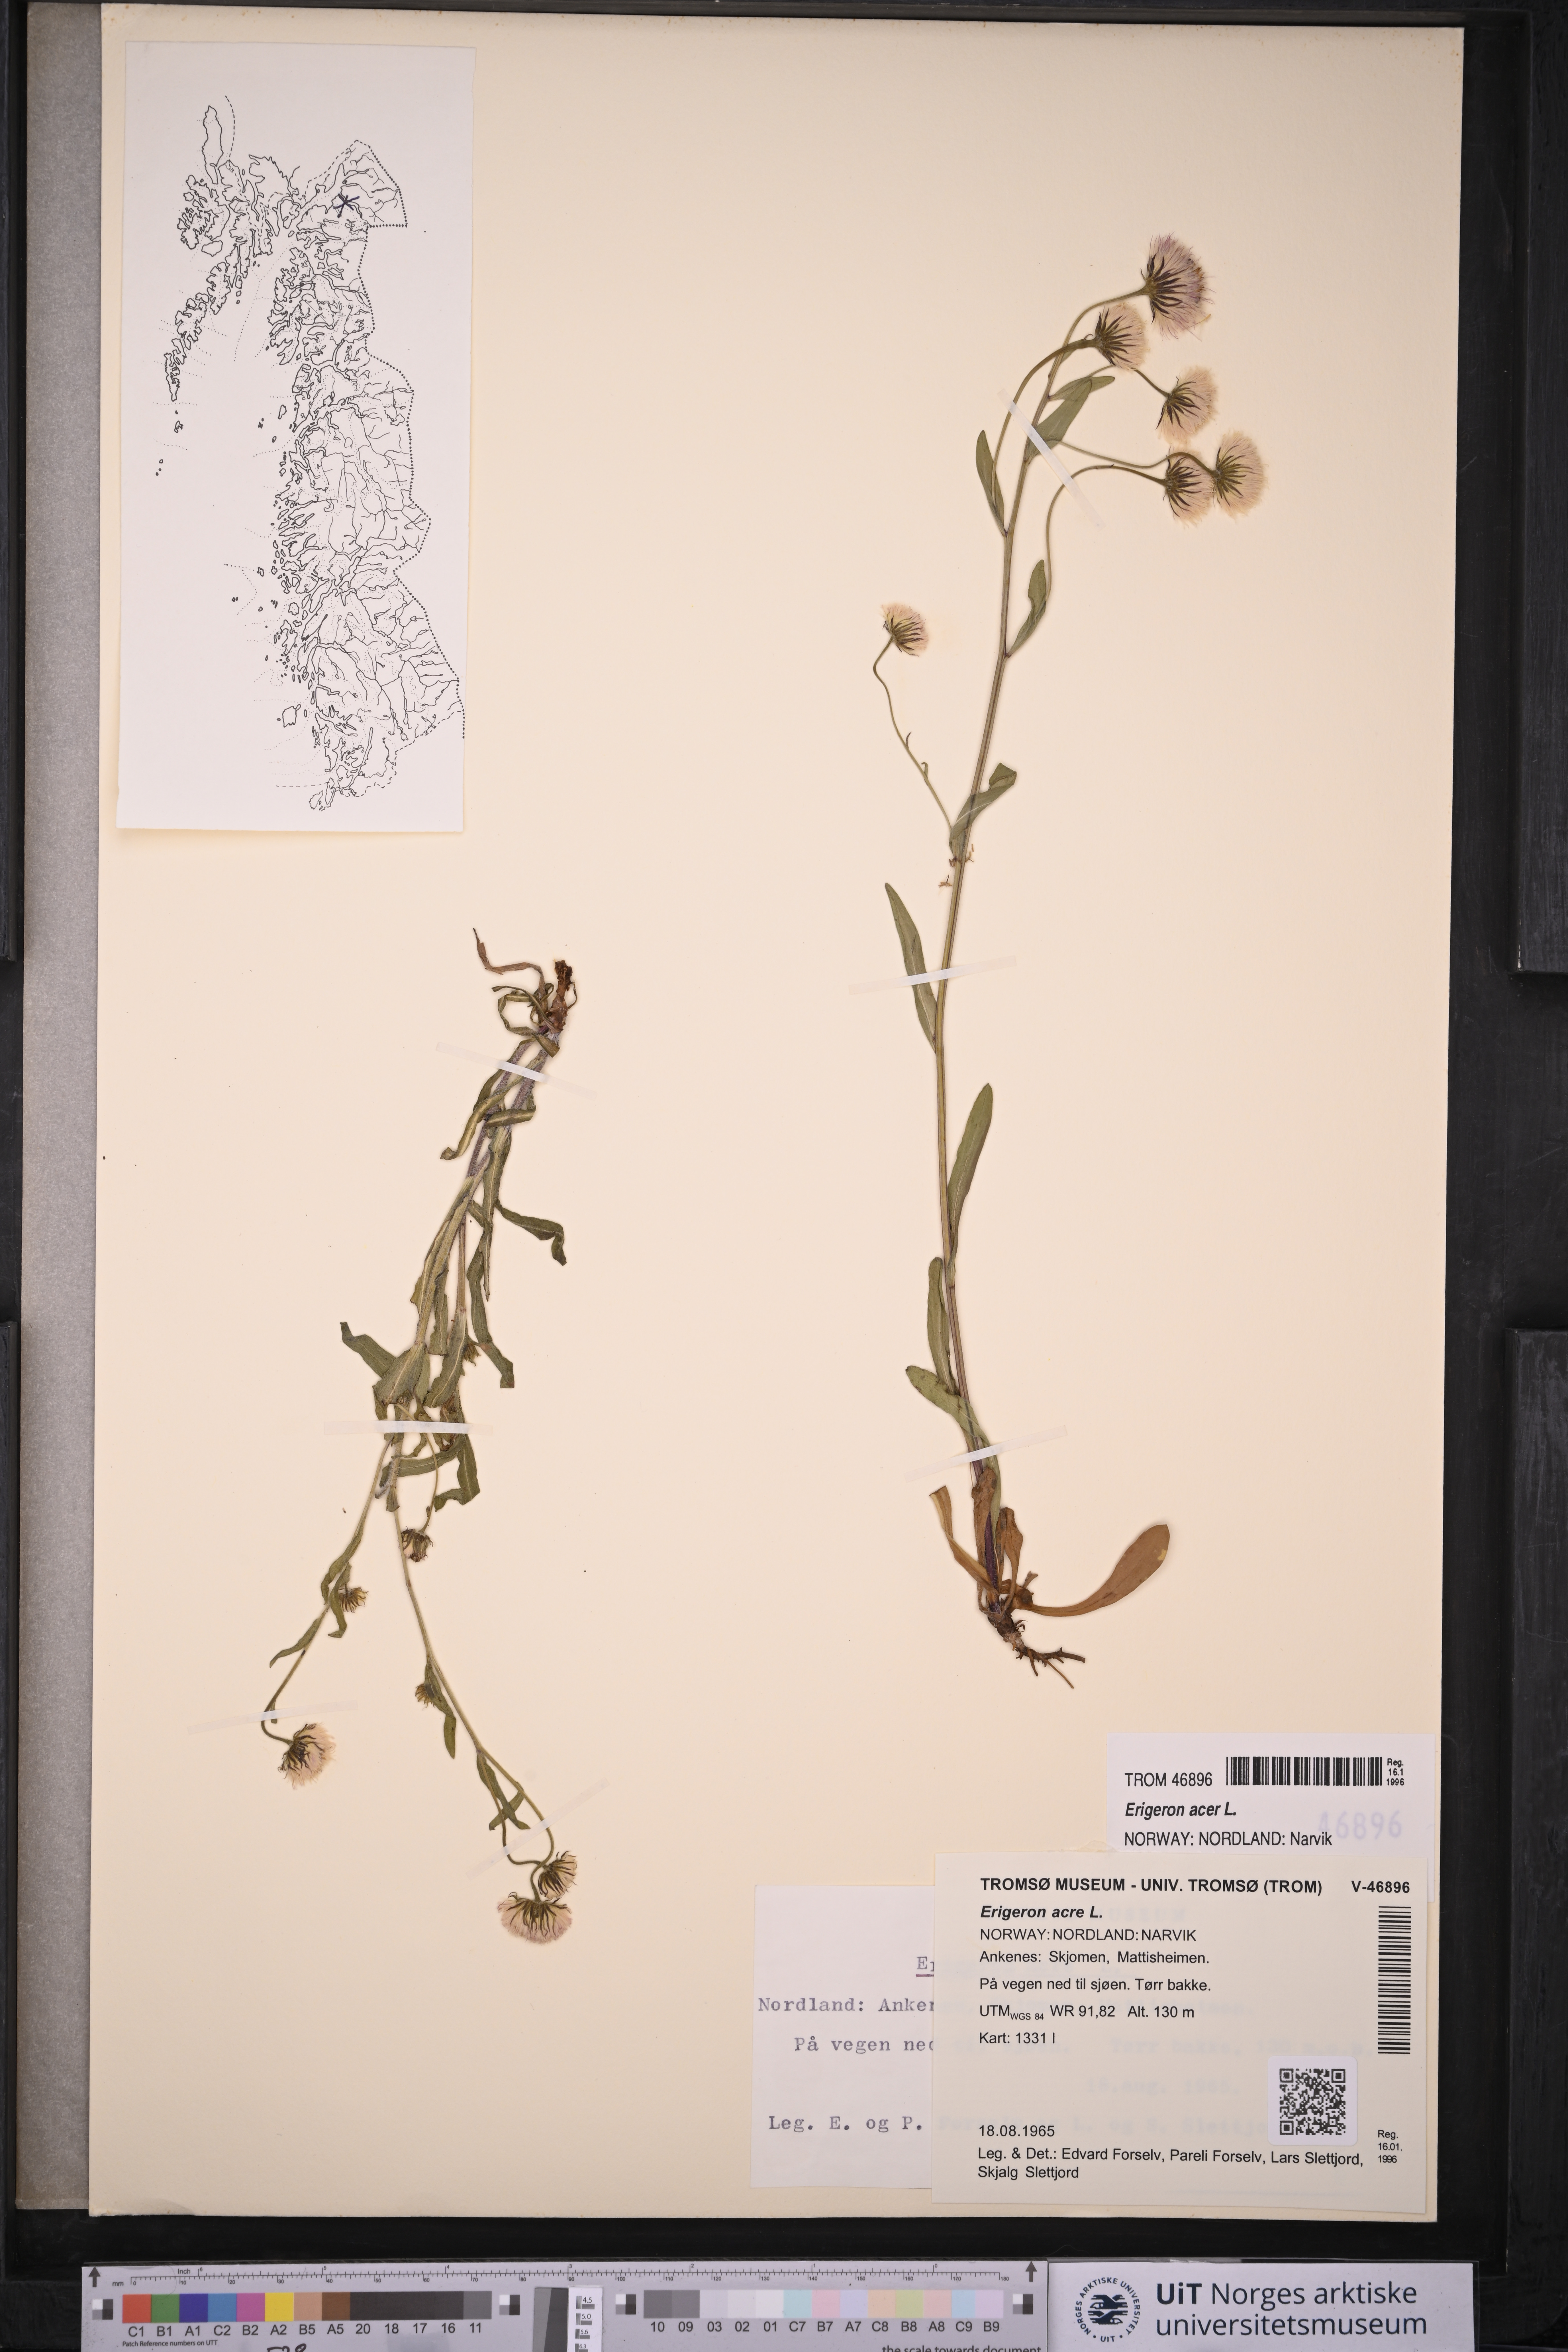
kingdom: Plantae
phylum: Tracheophyta
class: Magnoliopsida
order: Asterales
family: Asteraceae
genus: Erigeron
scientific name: Erigeron acris
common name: Blue fleabane
